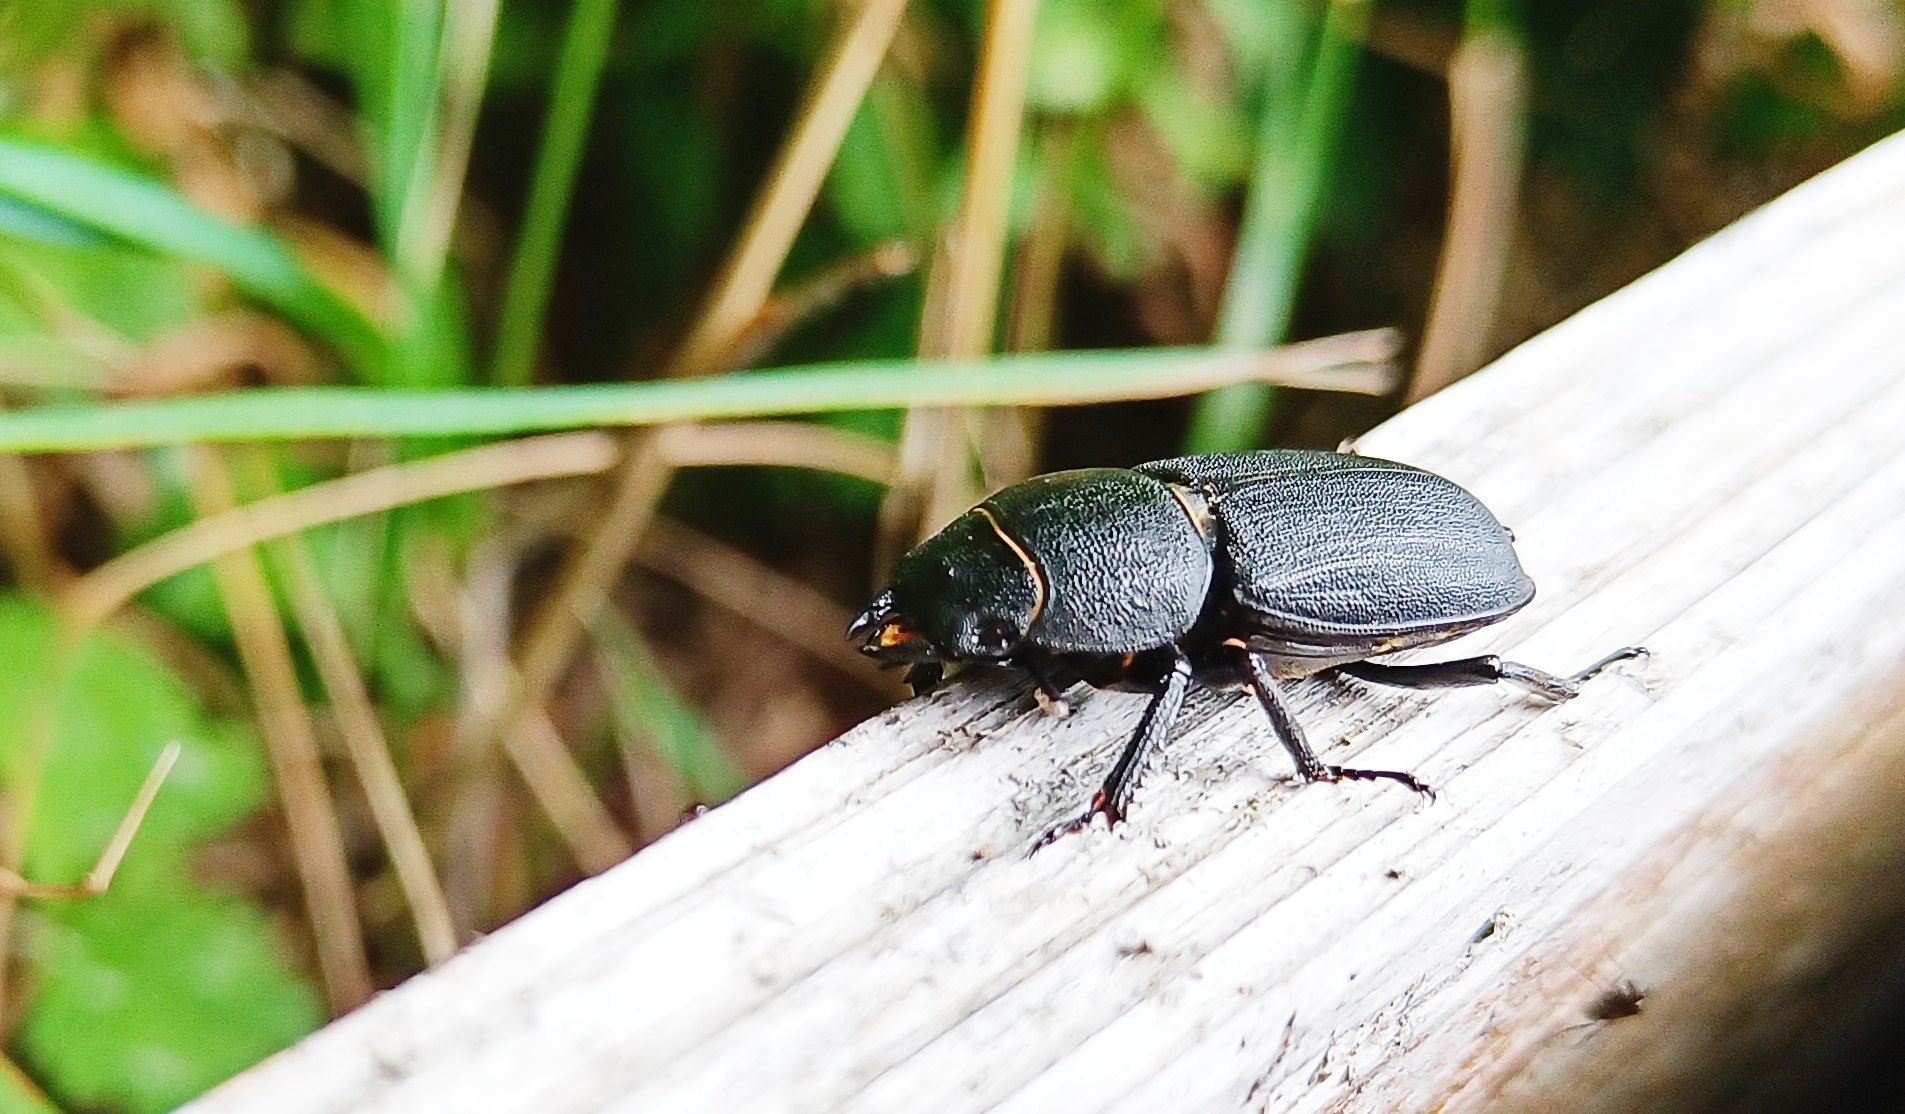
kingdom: Animalia
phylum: Arthropoda
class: Insecta
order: Coleoptera
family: Lucanidae
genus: Dorcus
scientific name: Dorcus parallelipipedus
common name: Bøghjort
